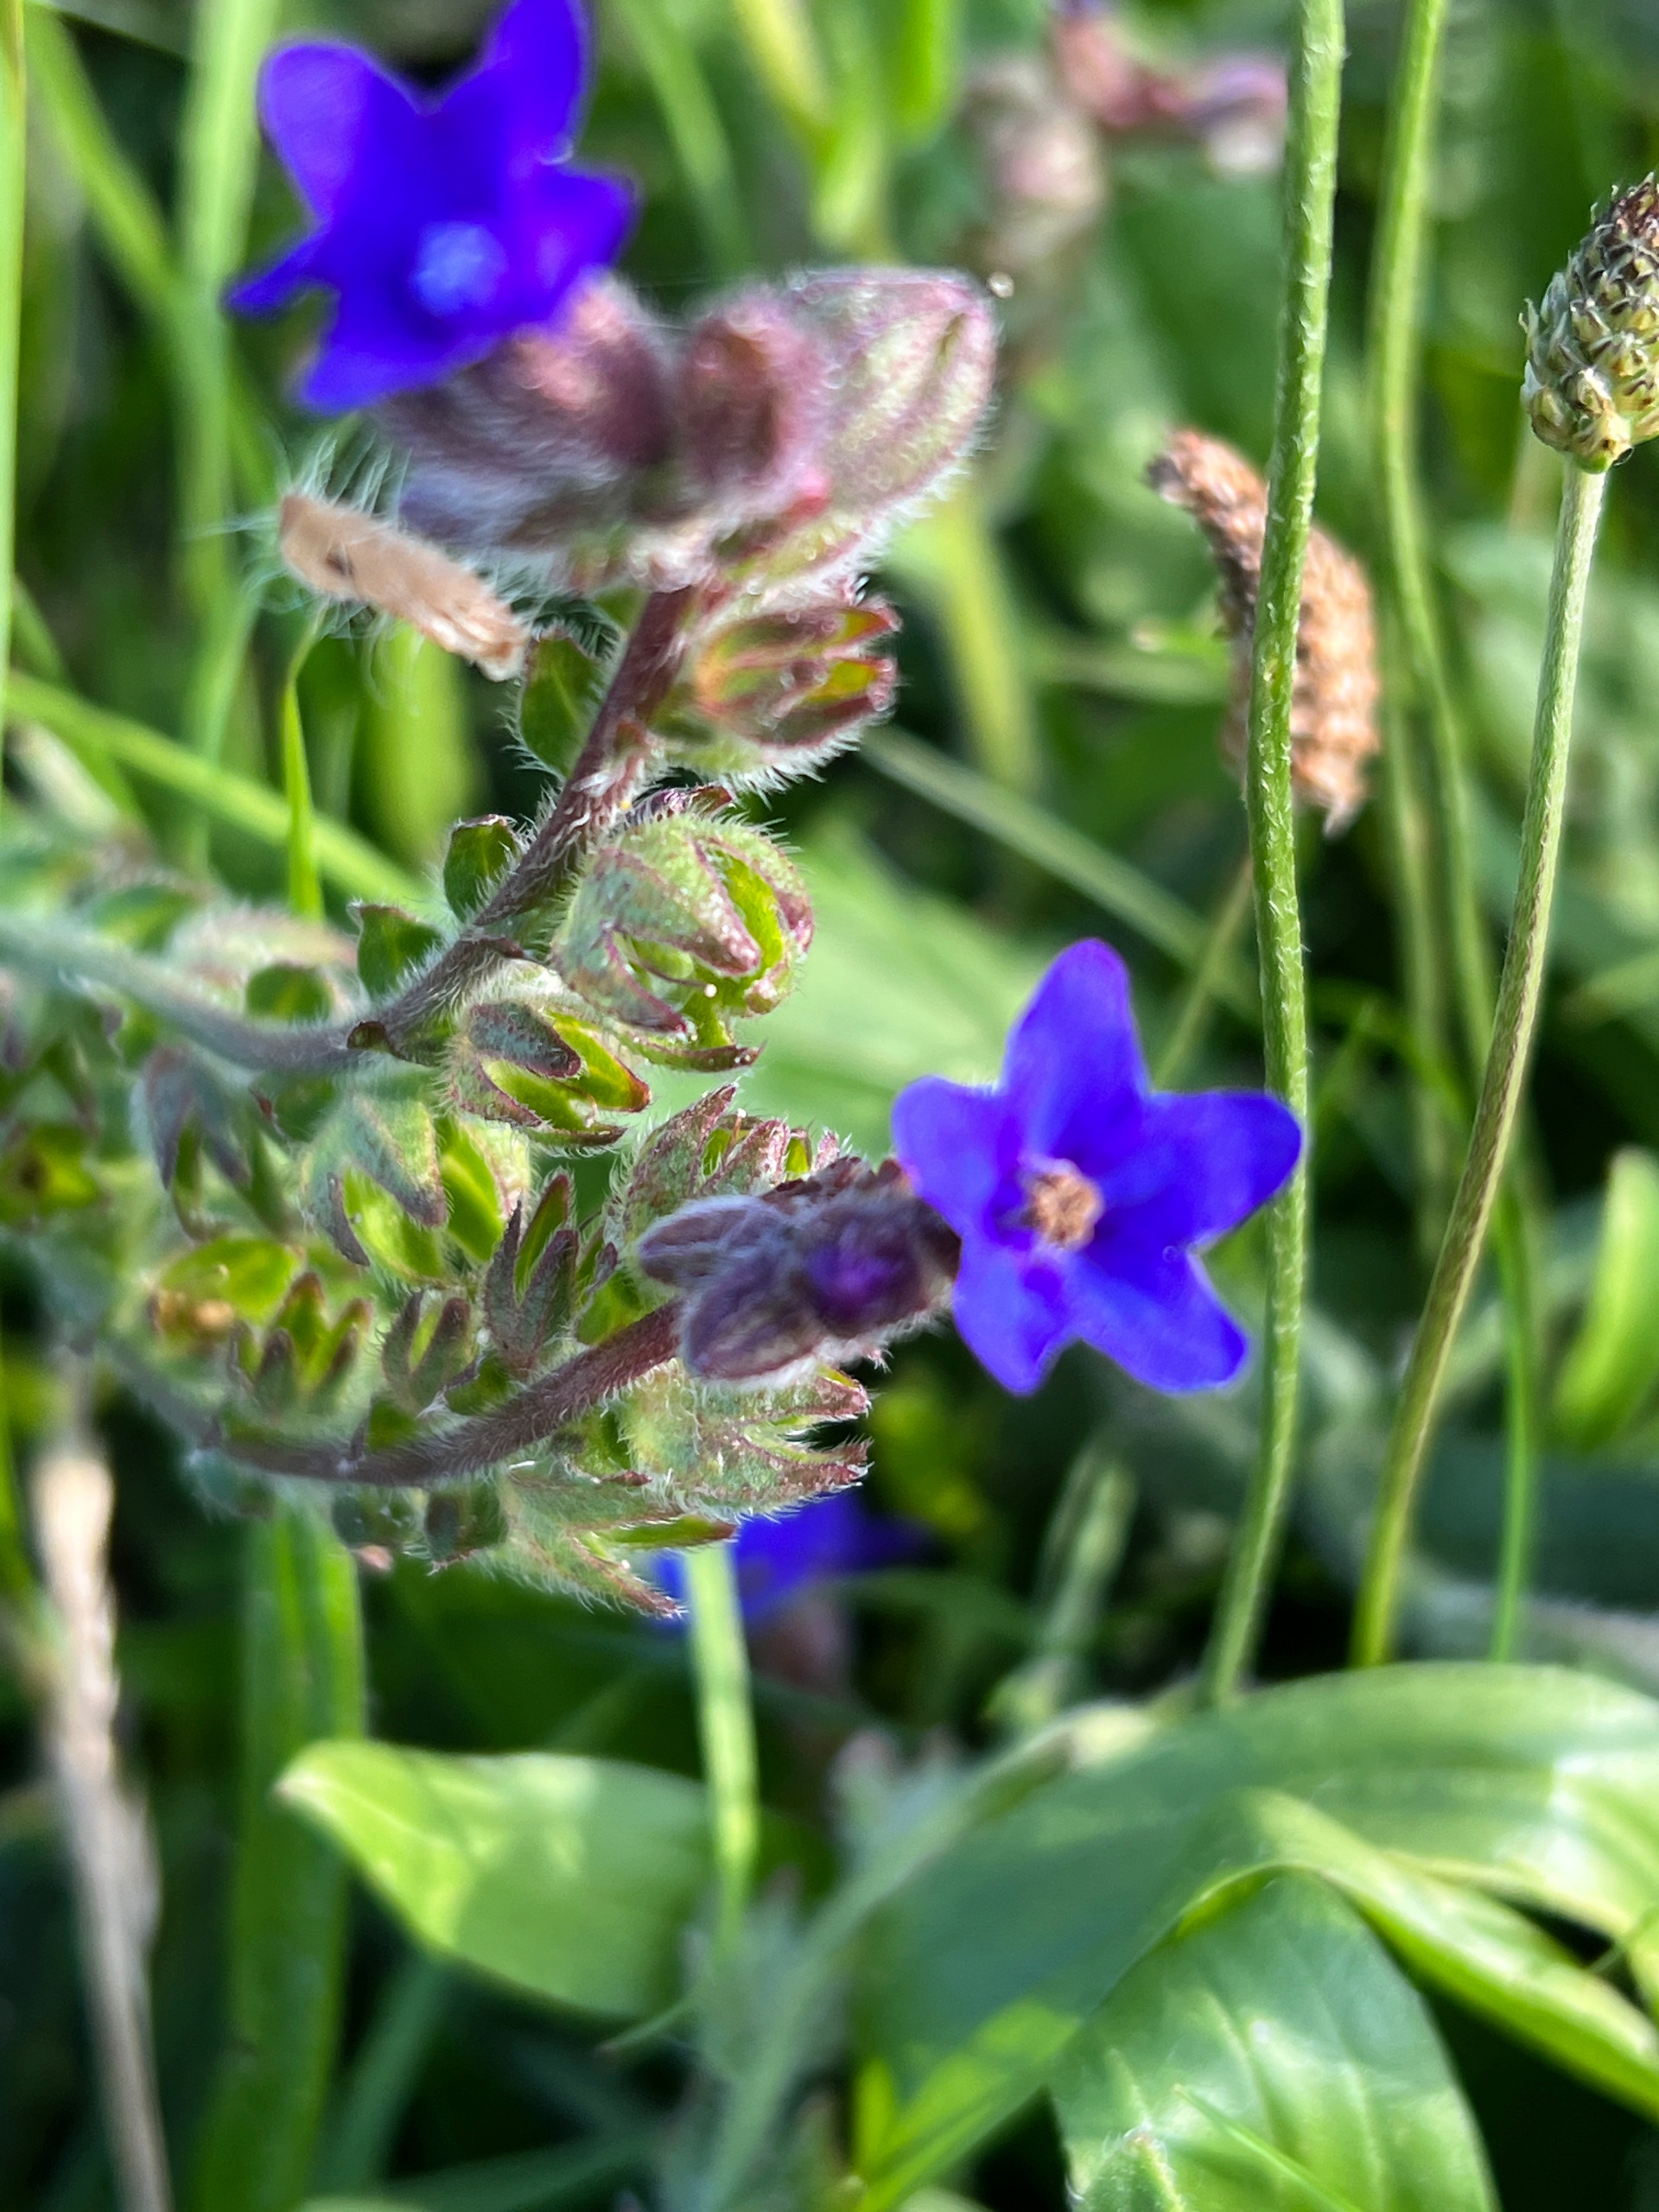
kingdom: Plantae
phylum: Tracheophyta
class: Magnoliopsida
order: Boraginales
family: Boraginaceae
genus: Anchusa
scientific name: Anchusa officinalis
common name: Læge-oksetunge
